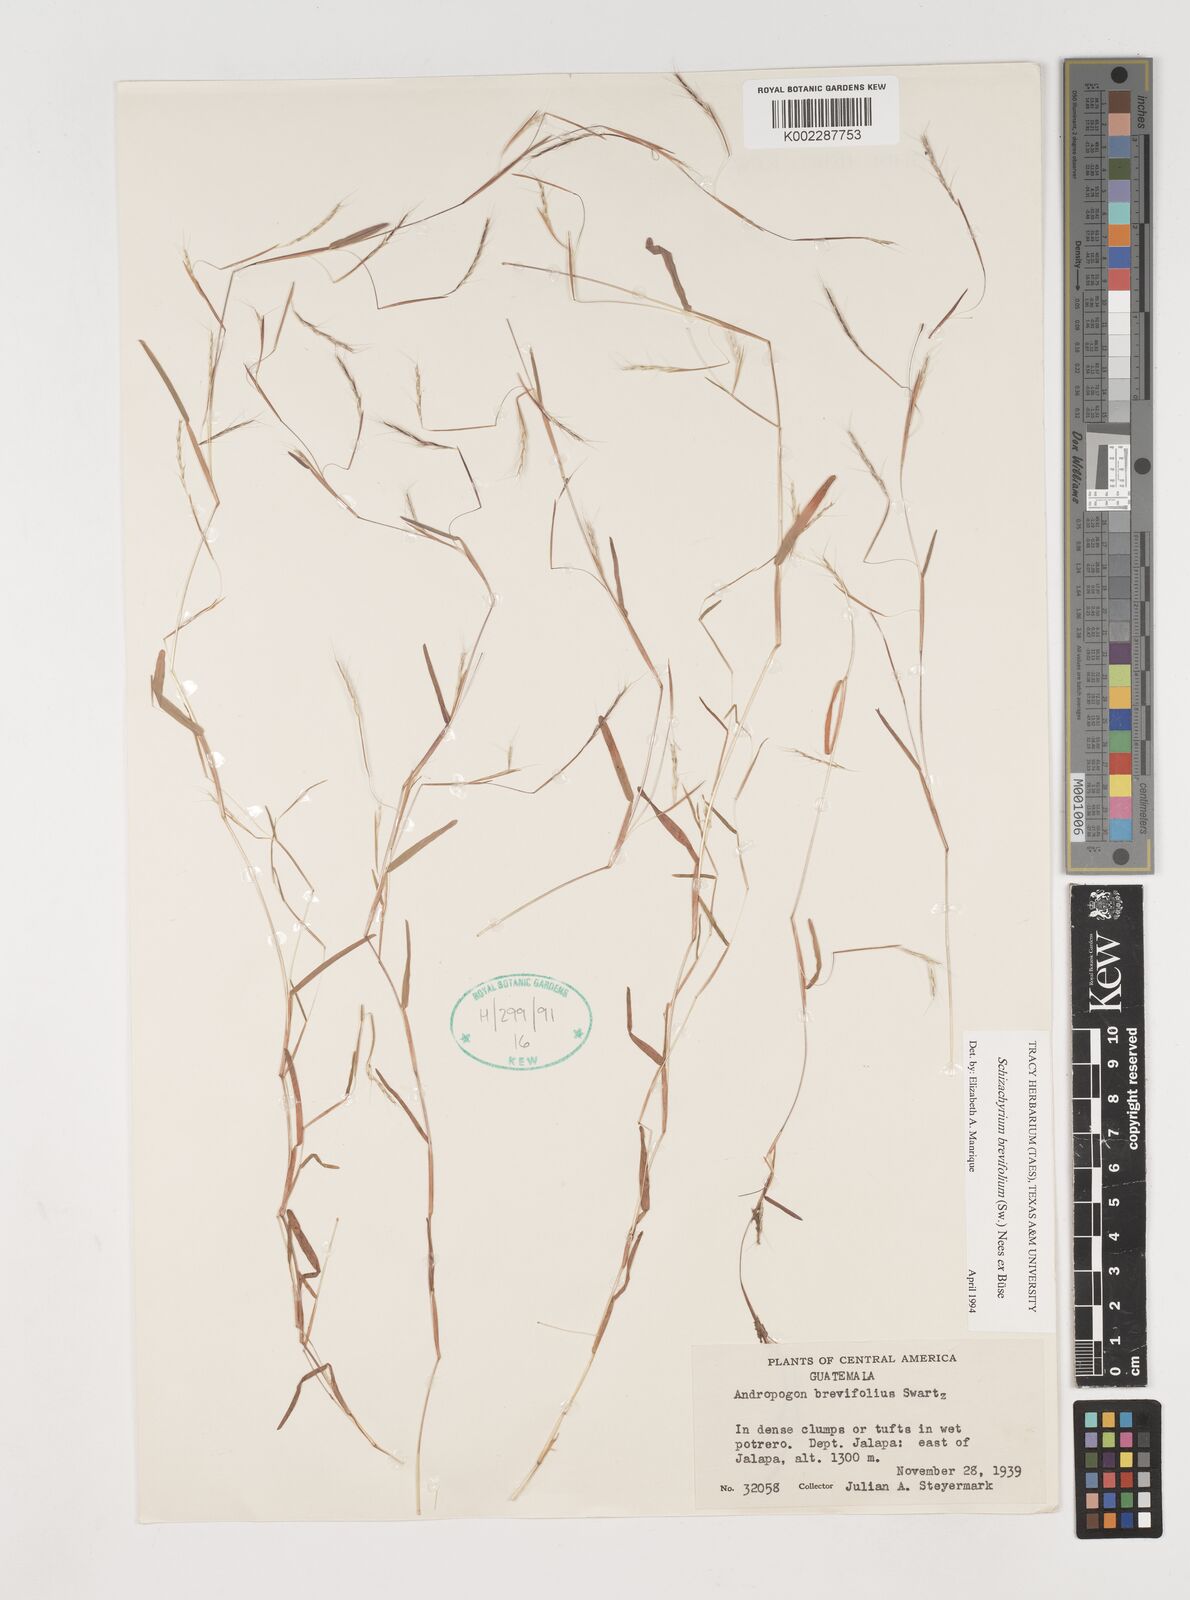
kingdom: Plantae
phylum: Tracheophyta
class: Liliopsida
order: Poales
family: Poaceae
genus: Schizachyrium
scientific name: Schizachyrium brevifolium
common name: Serillo dulce
